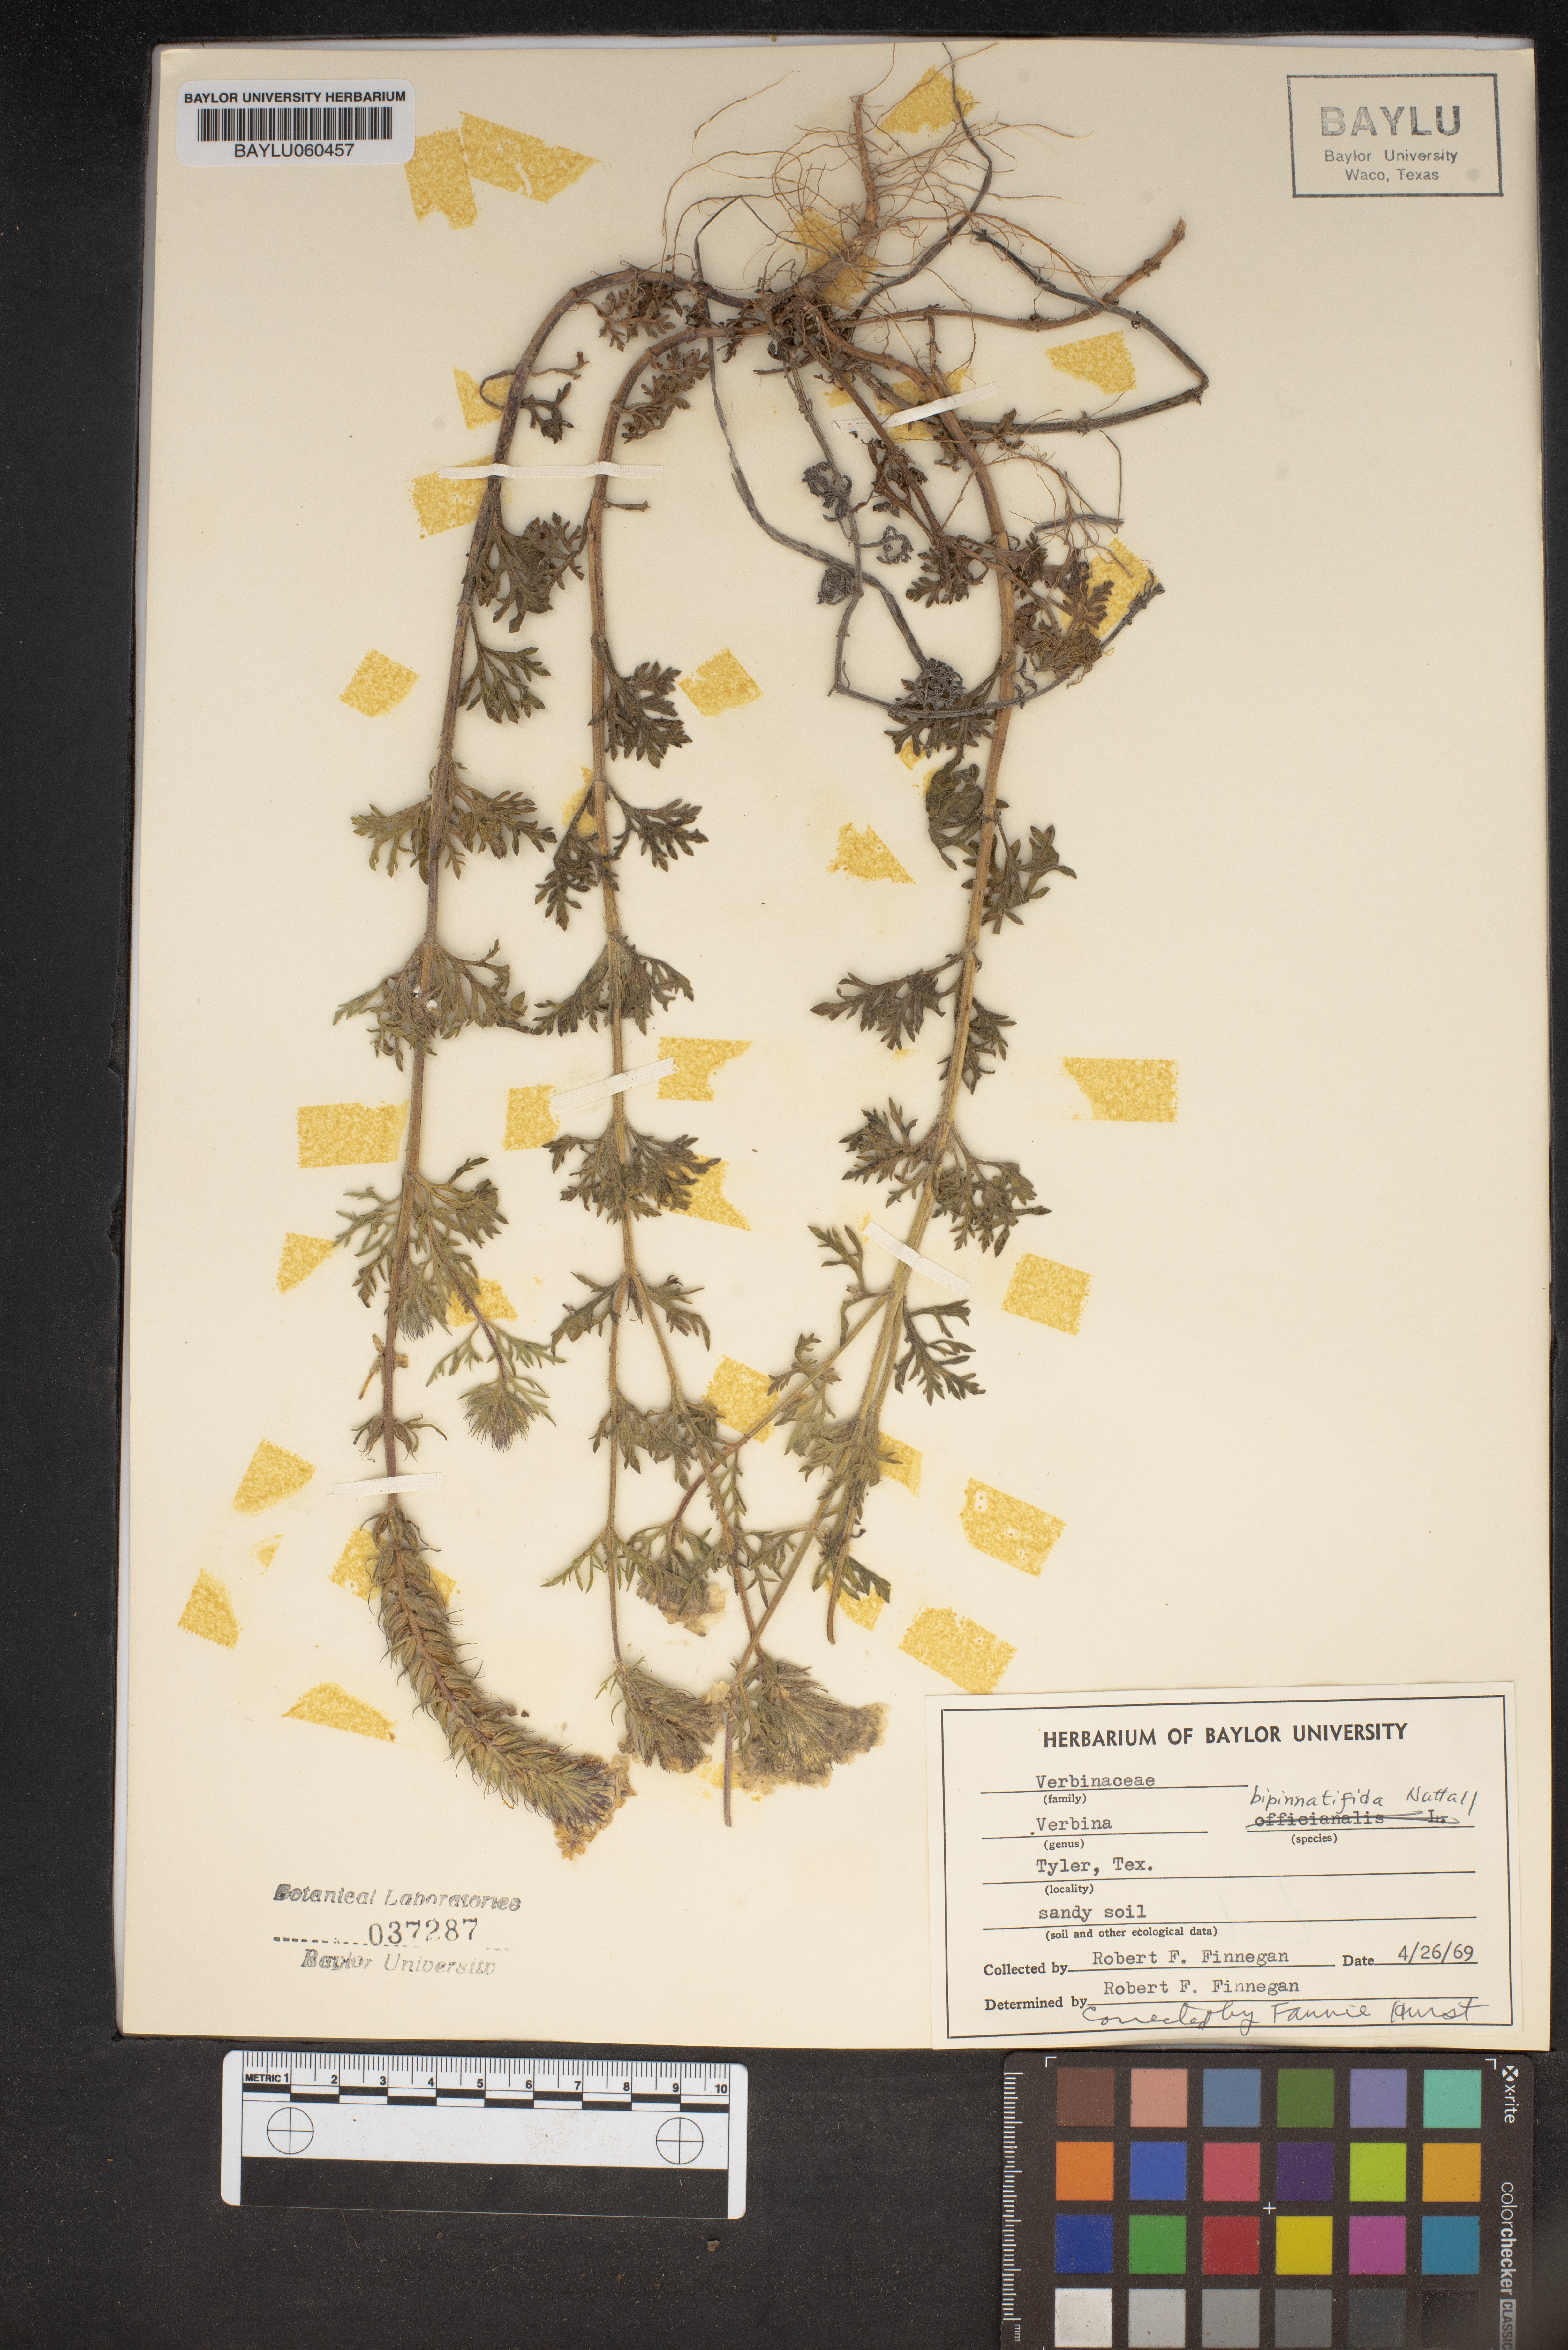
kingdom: Plantae
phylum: Tracheophyta
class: Magnoliopsida
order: Lamiales
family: Verbenaceae
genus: Verbena
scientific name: Verbena bipinnatifida
